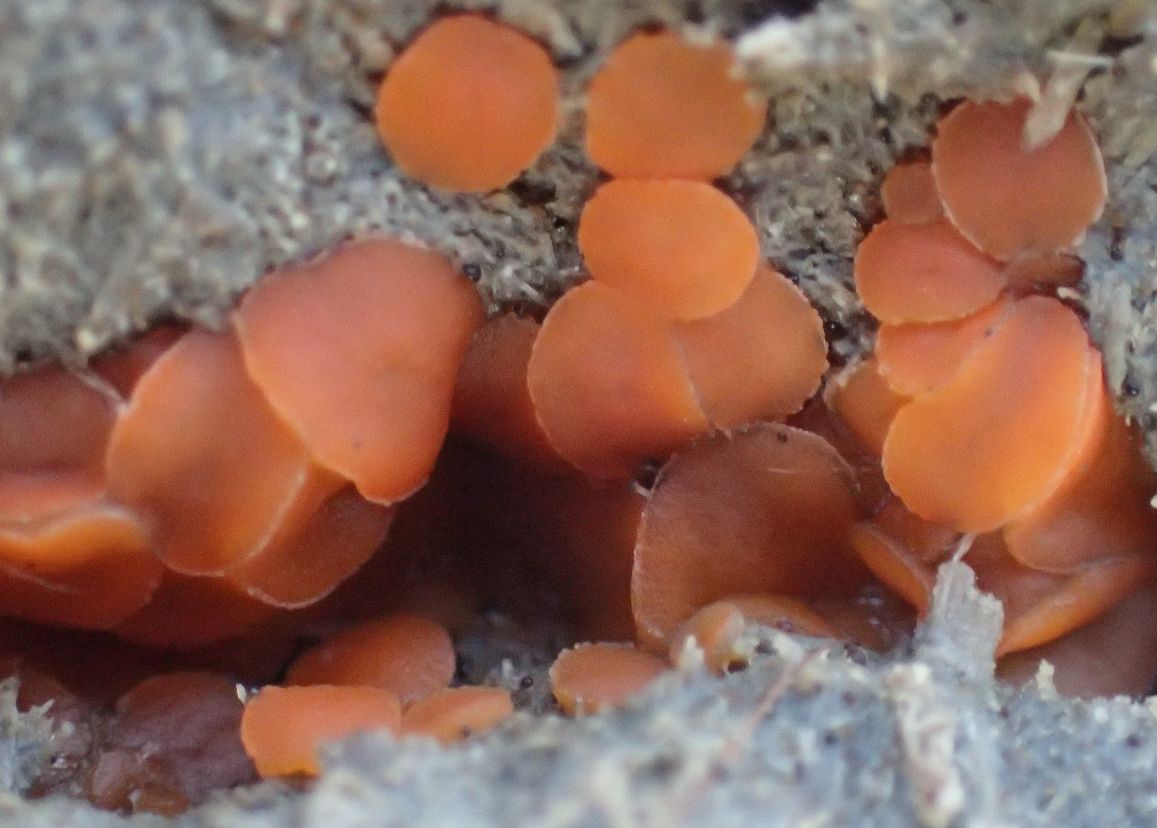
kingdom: Fungi
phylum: Ascomycota
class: Pezizomycetes
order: Pezizales
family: Pyronemataceae
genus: Cheilymenia
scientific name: Cheilymenia granulata
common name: møgbæger
